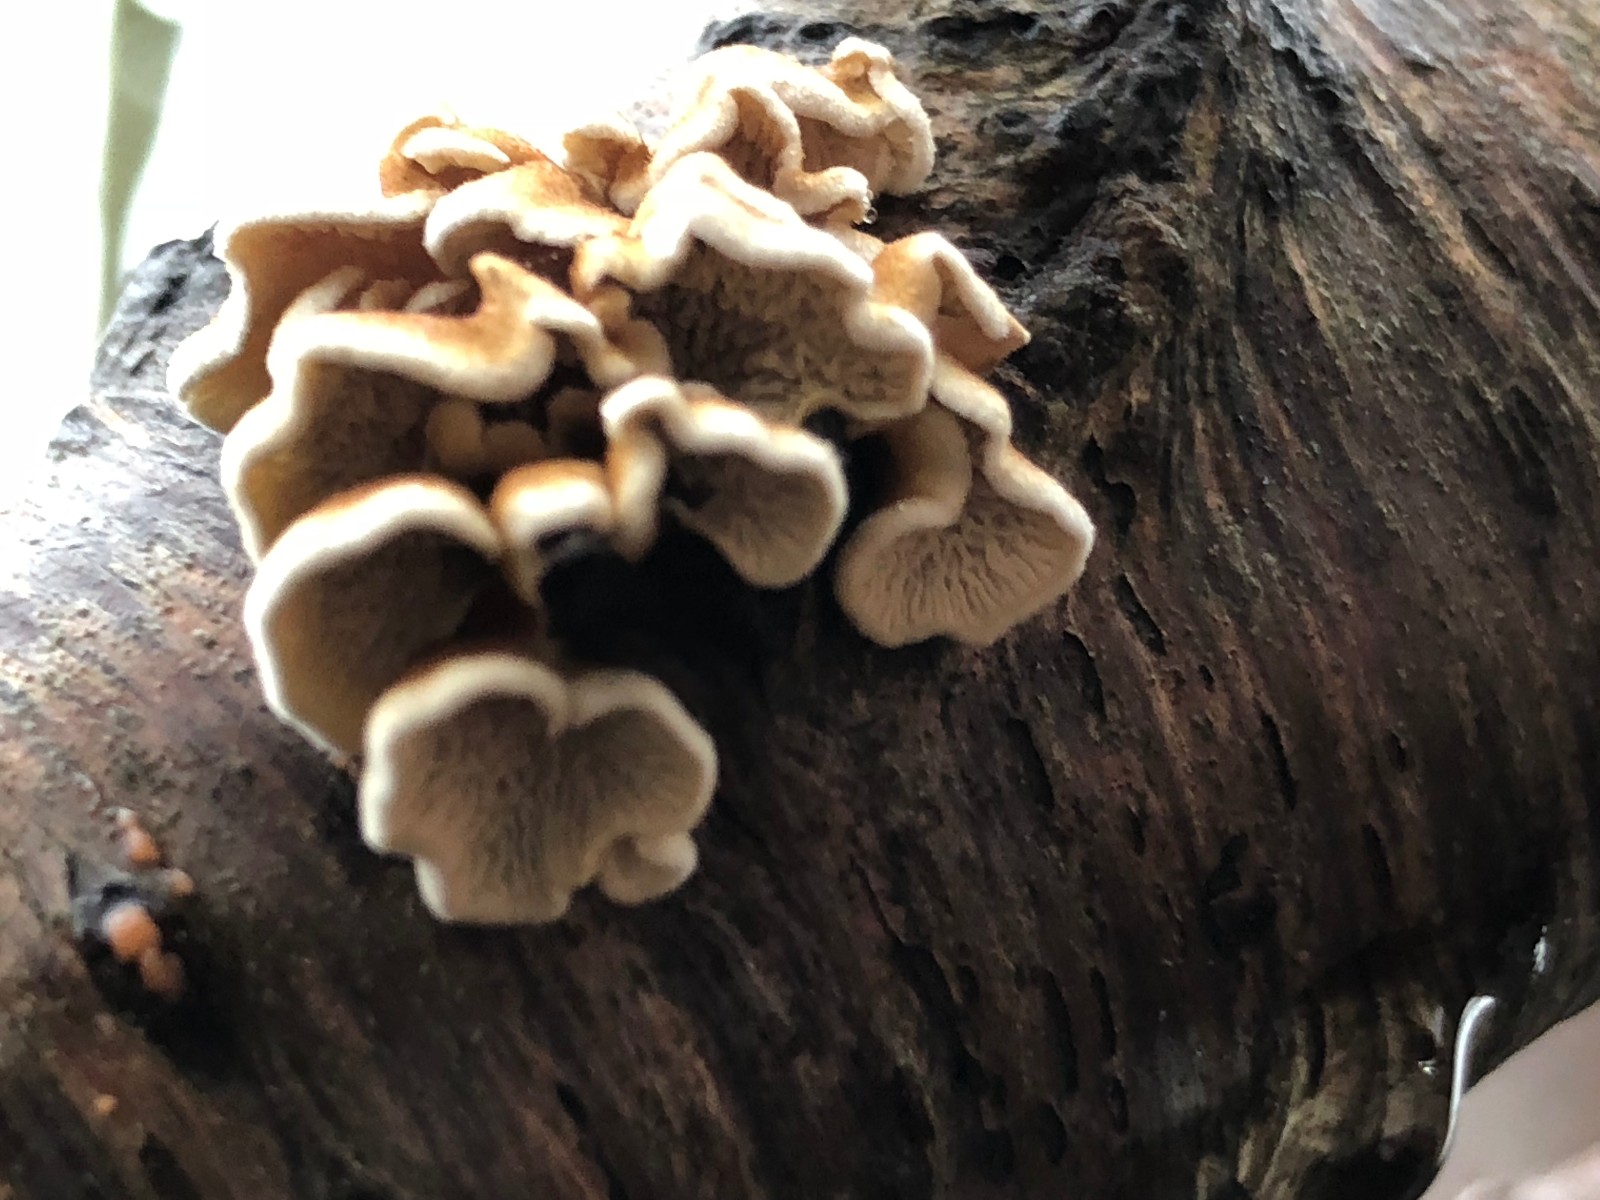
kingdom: Fungi
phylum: Basidiomycota
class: Agaricomycetes
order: Amylocorticiales
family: Amylocorticiaceae
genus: Plicaturopsis
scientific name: Plicaturopsis crispa
